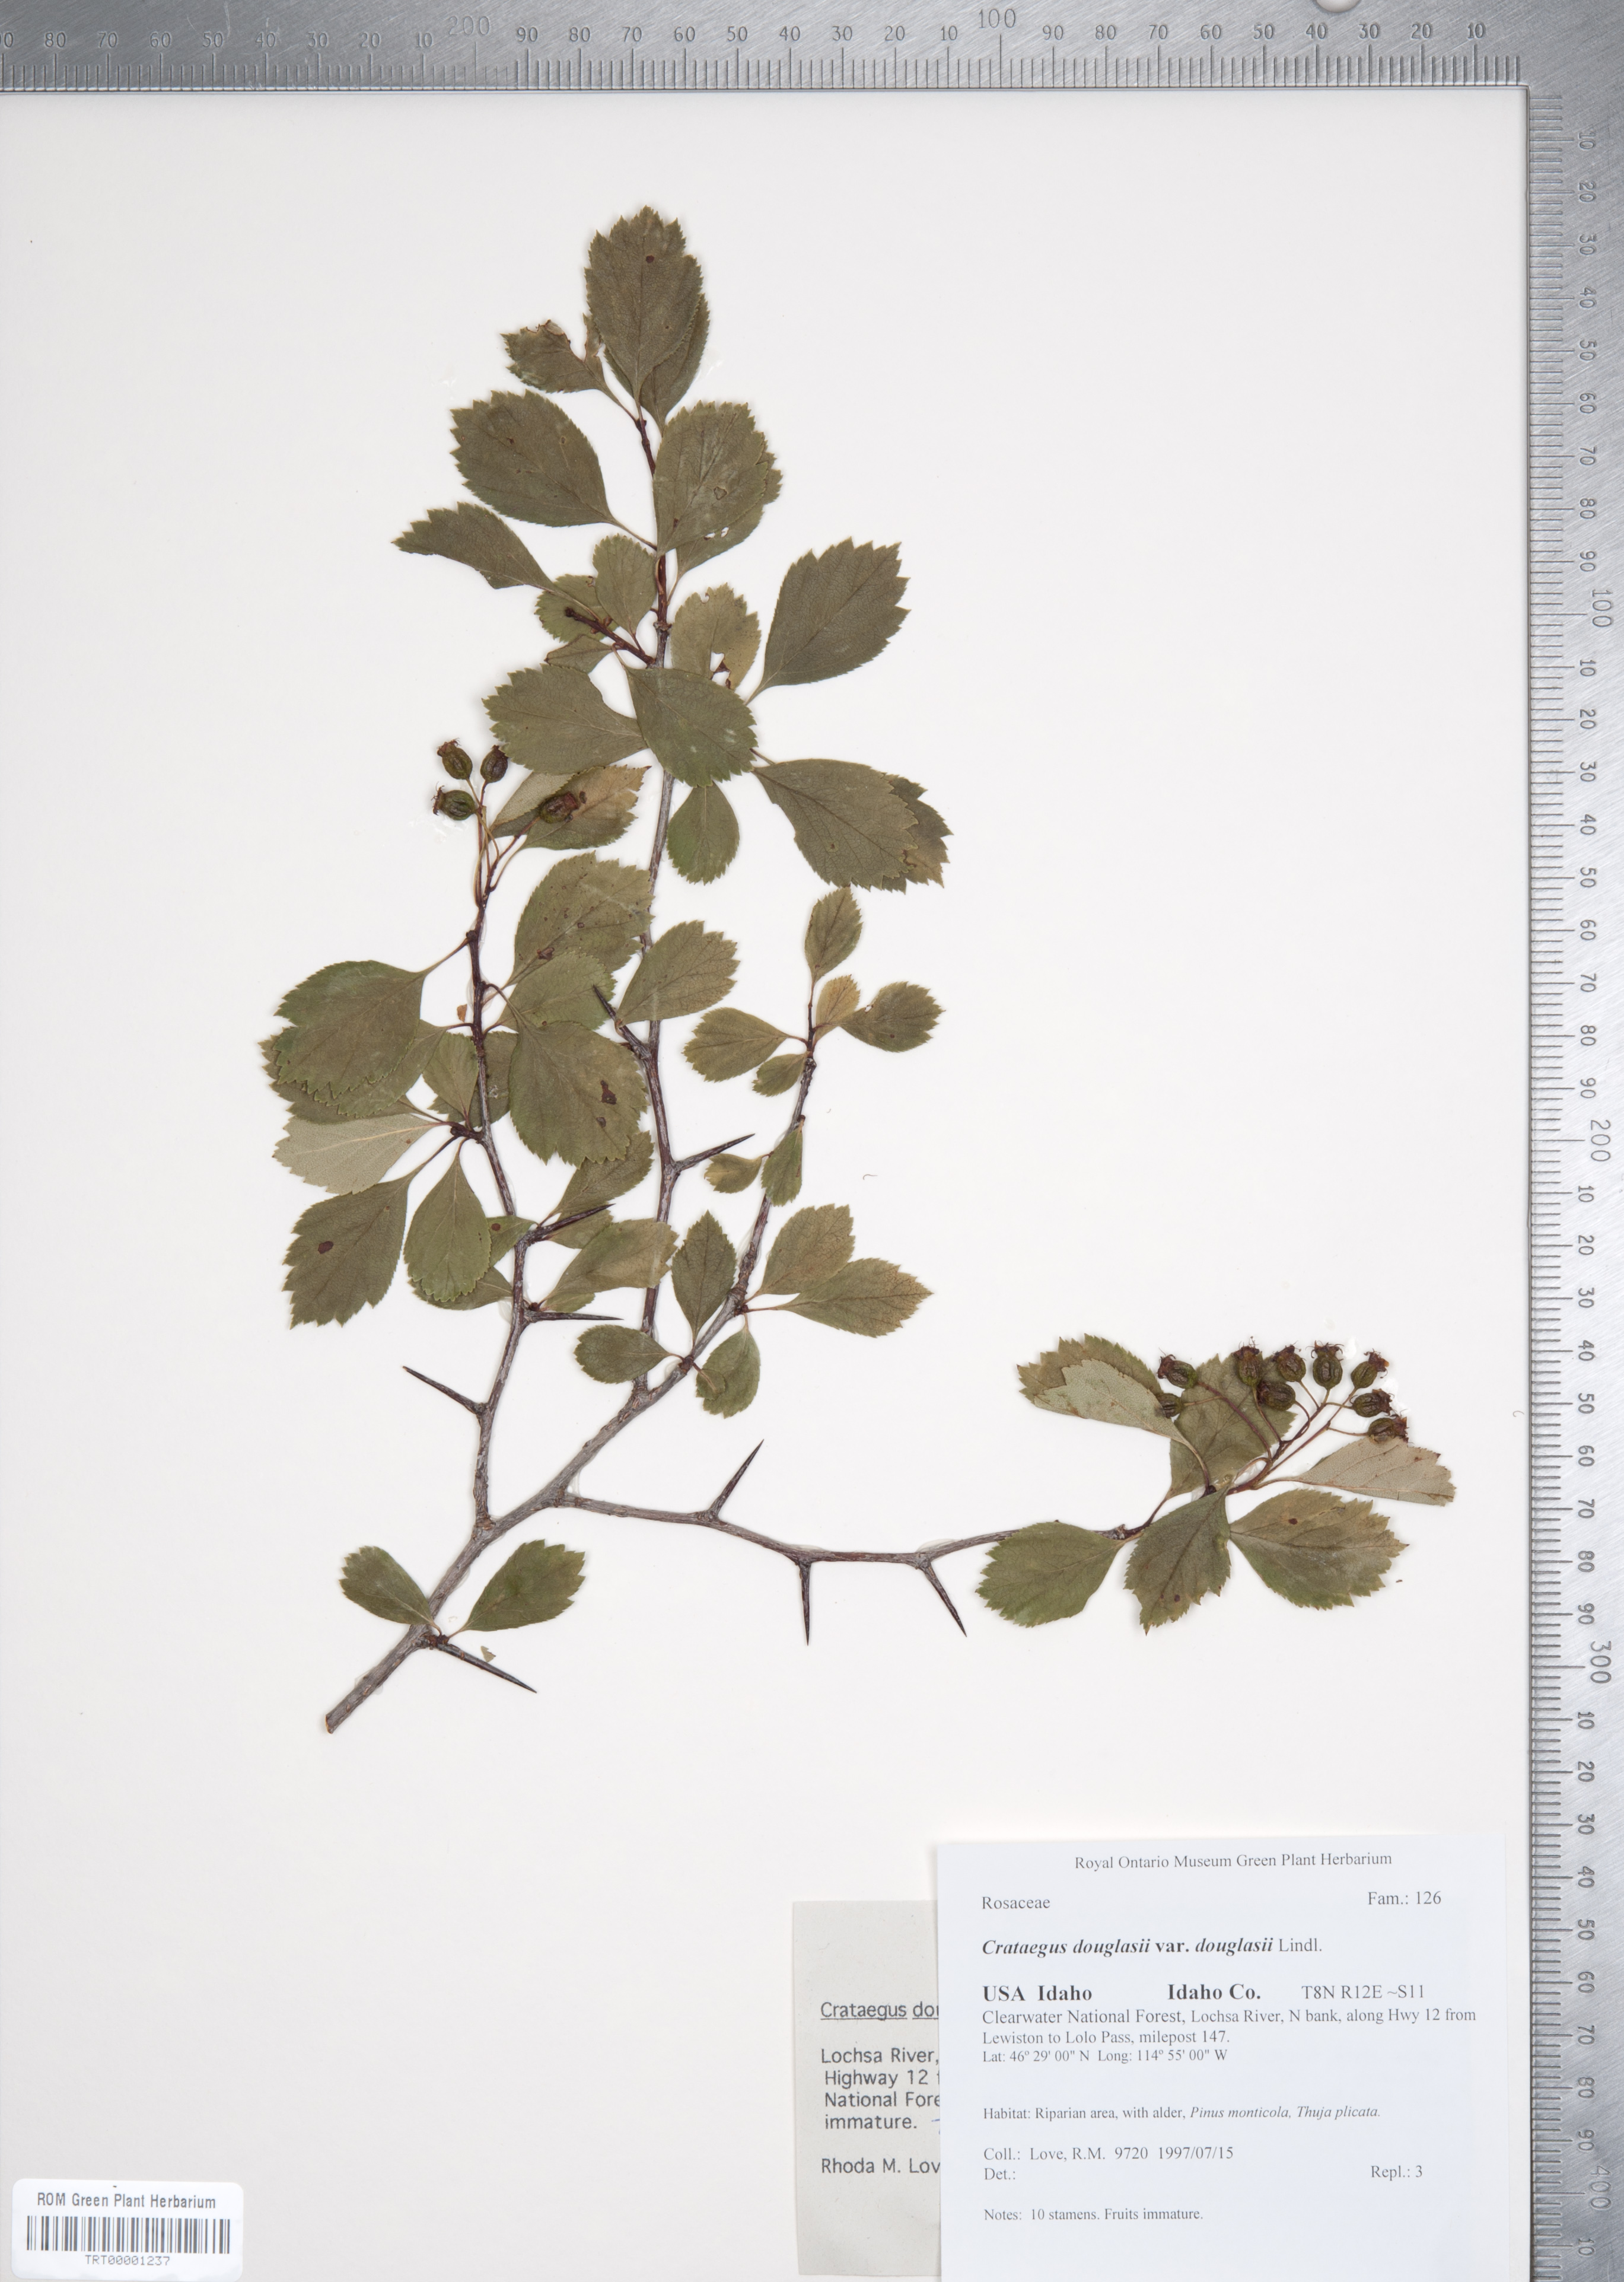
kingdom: Plantae
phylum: Tracheophyta
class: Magnoliopsida
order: Rosales
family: Rosaceae
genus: Crataegus
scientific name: Crataegus douglasii
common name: Black hawthorn
